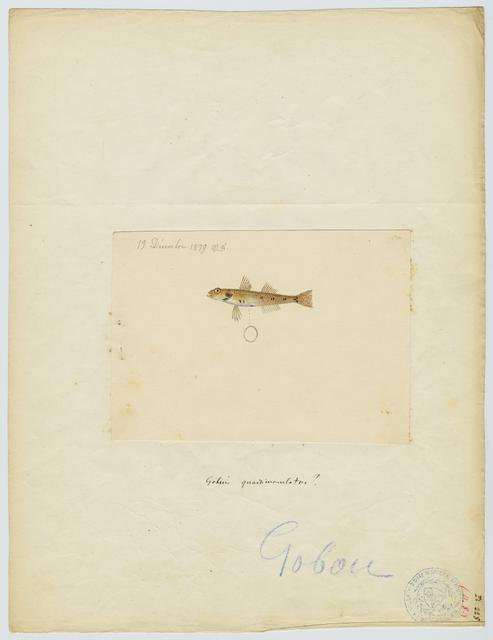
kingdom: Animalia
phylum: Chordata
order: Perciformes
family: Gobiidae
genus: Deltentosteus
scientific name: Deltentosteus quadrimaculatus
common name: Four-spotted goby
